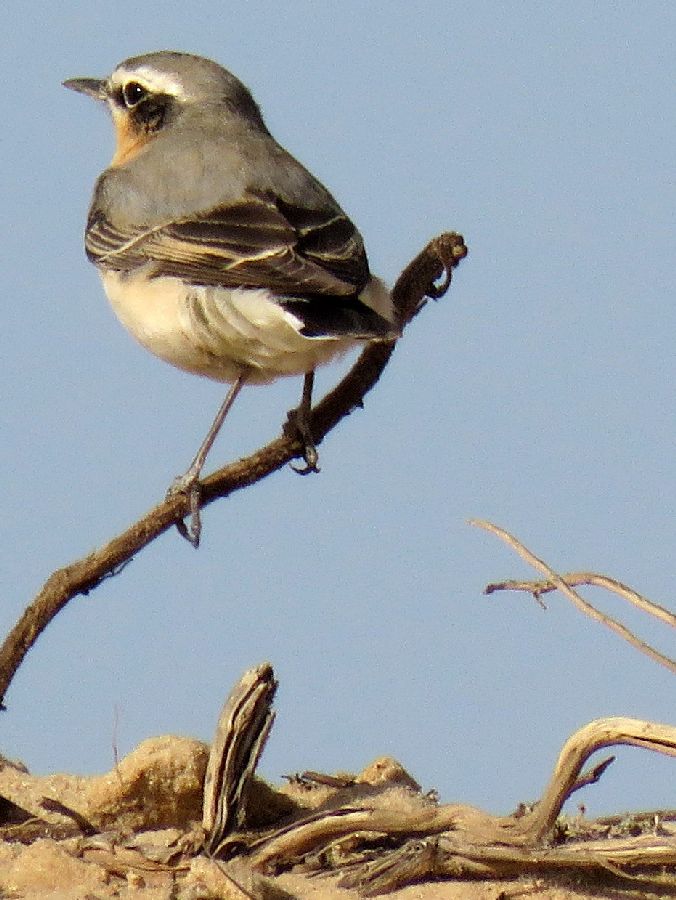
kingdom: Animalia
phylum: Chordata
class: Aves
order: Passeriformes
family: Muscicapidae
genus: Oenanthe
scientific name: Oenanthe oenanthe
